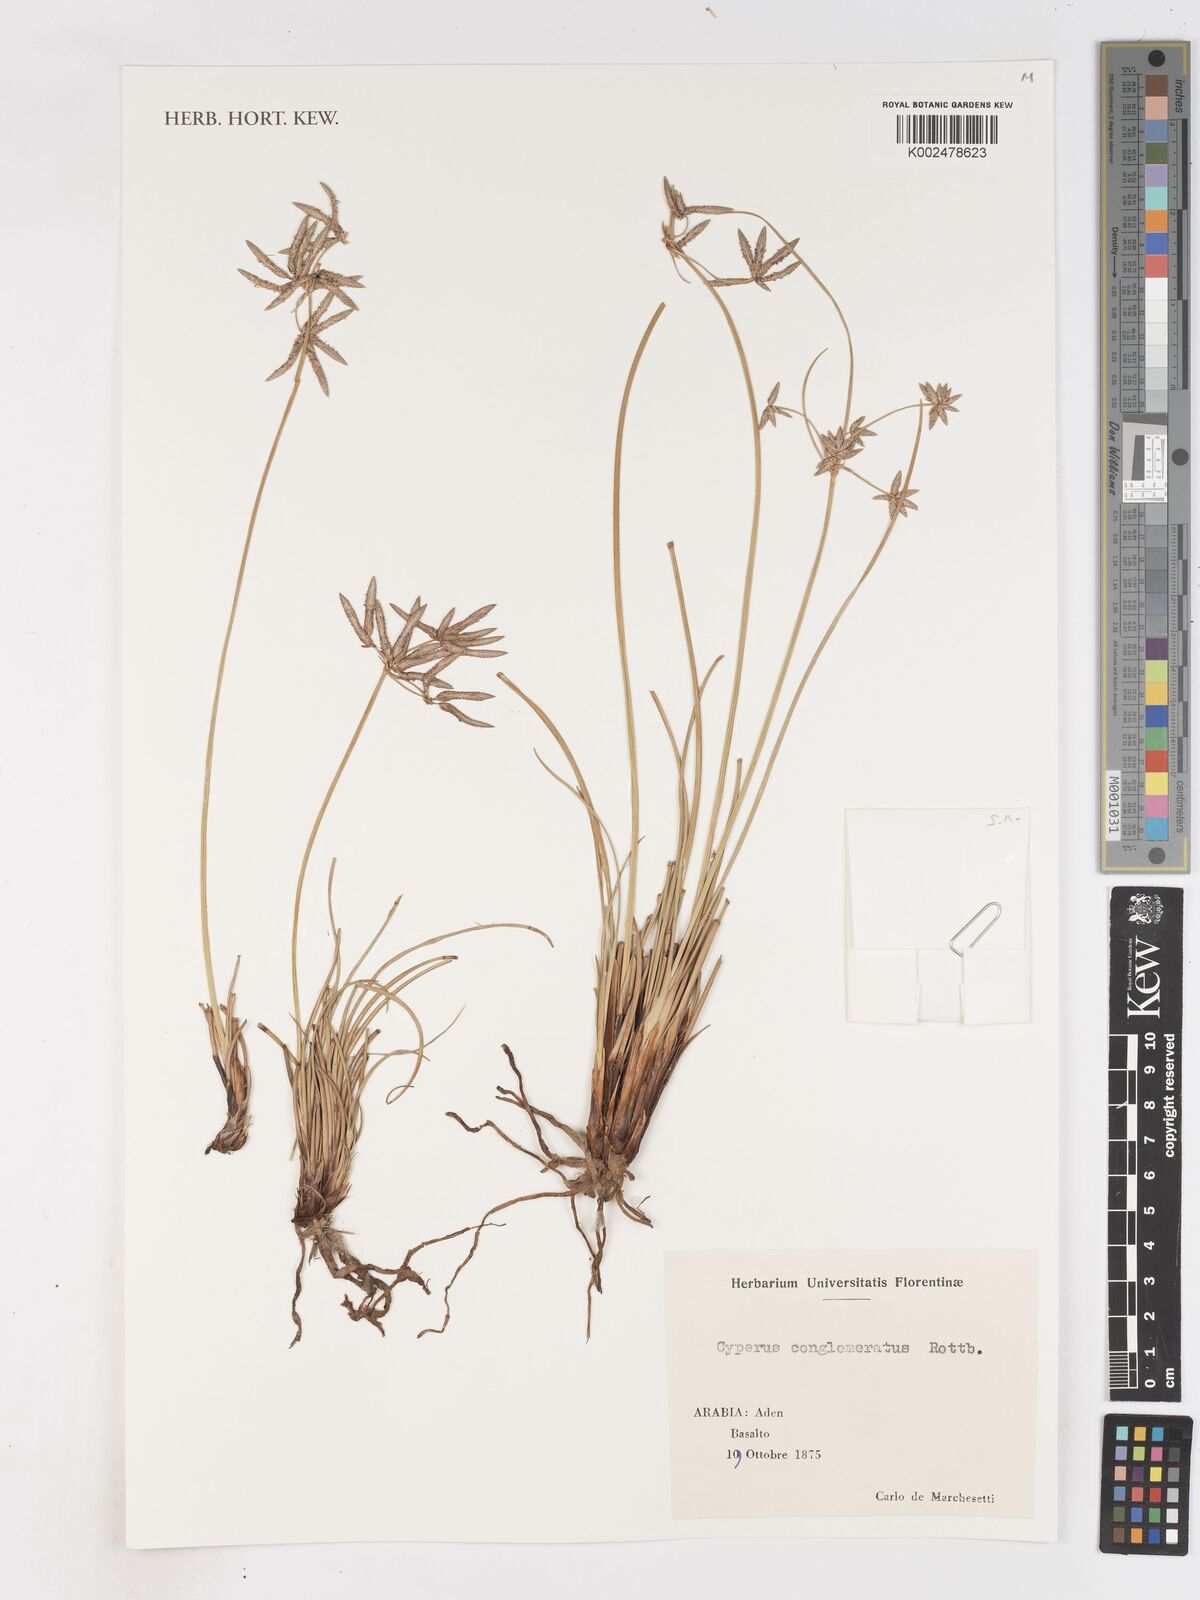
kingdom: Plantae
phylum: Tracheophyta
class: Liliopsida
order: Poales
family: Cyperaceae
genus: Cyperus
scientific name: Cyperus conglomeratus
